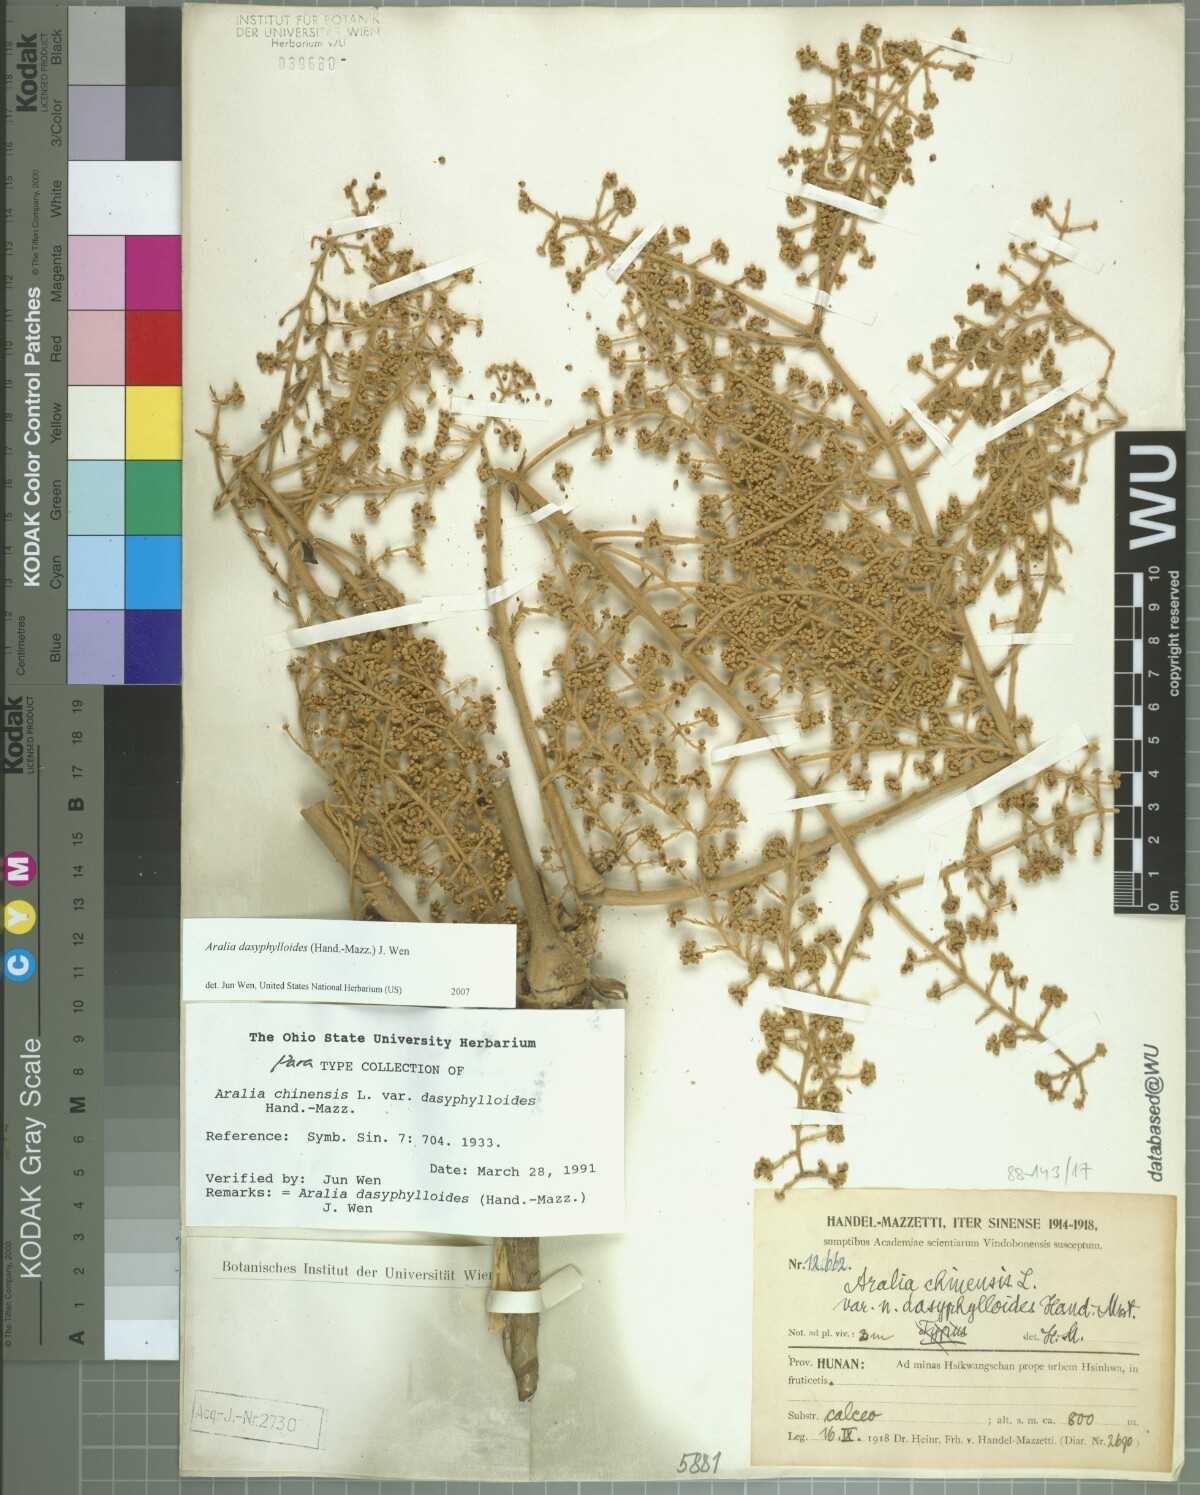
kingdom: Plantae
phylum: Tracheophyta
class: Magnoliopsida
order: Apiales
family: Araliaceae
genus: Aralia
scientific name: Aralia dasyphylloides
